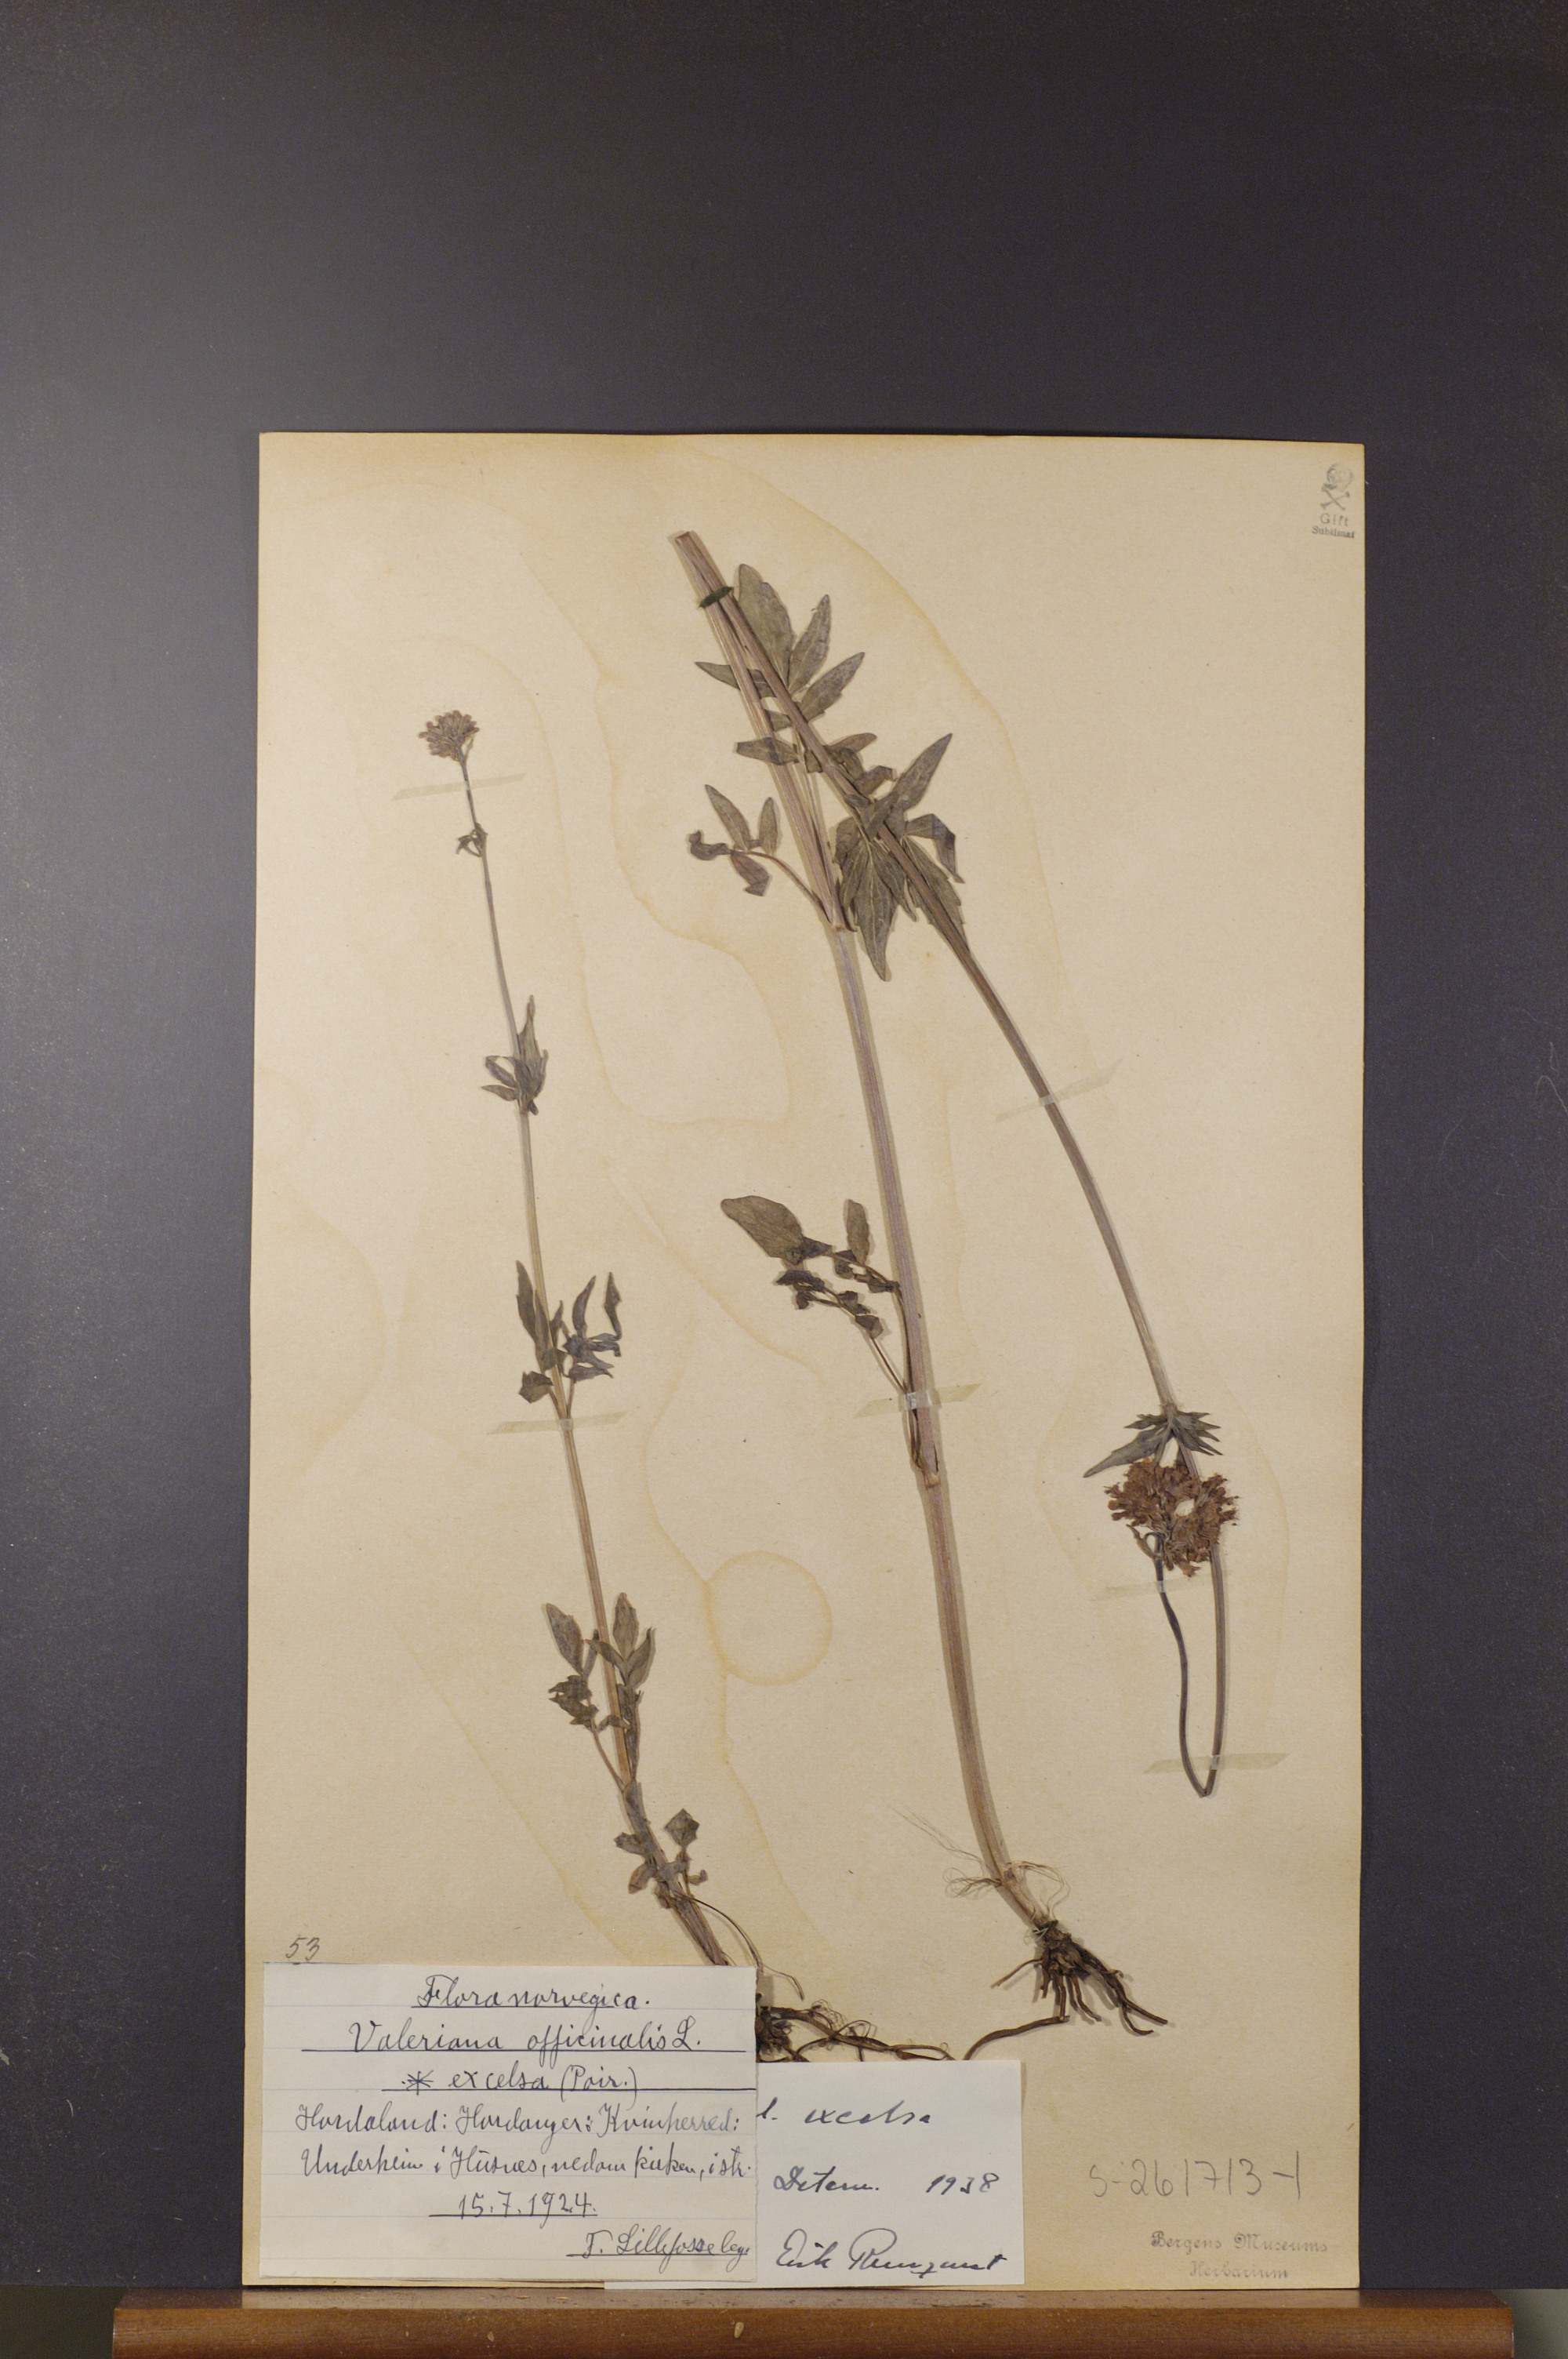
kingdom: Plantae
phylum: Tracheophyta
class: Magnoliopsida
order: Dipsacales
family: Caprifoliaceae
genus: Valeriana
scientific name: Valeriana sambucifolia
